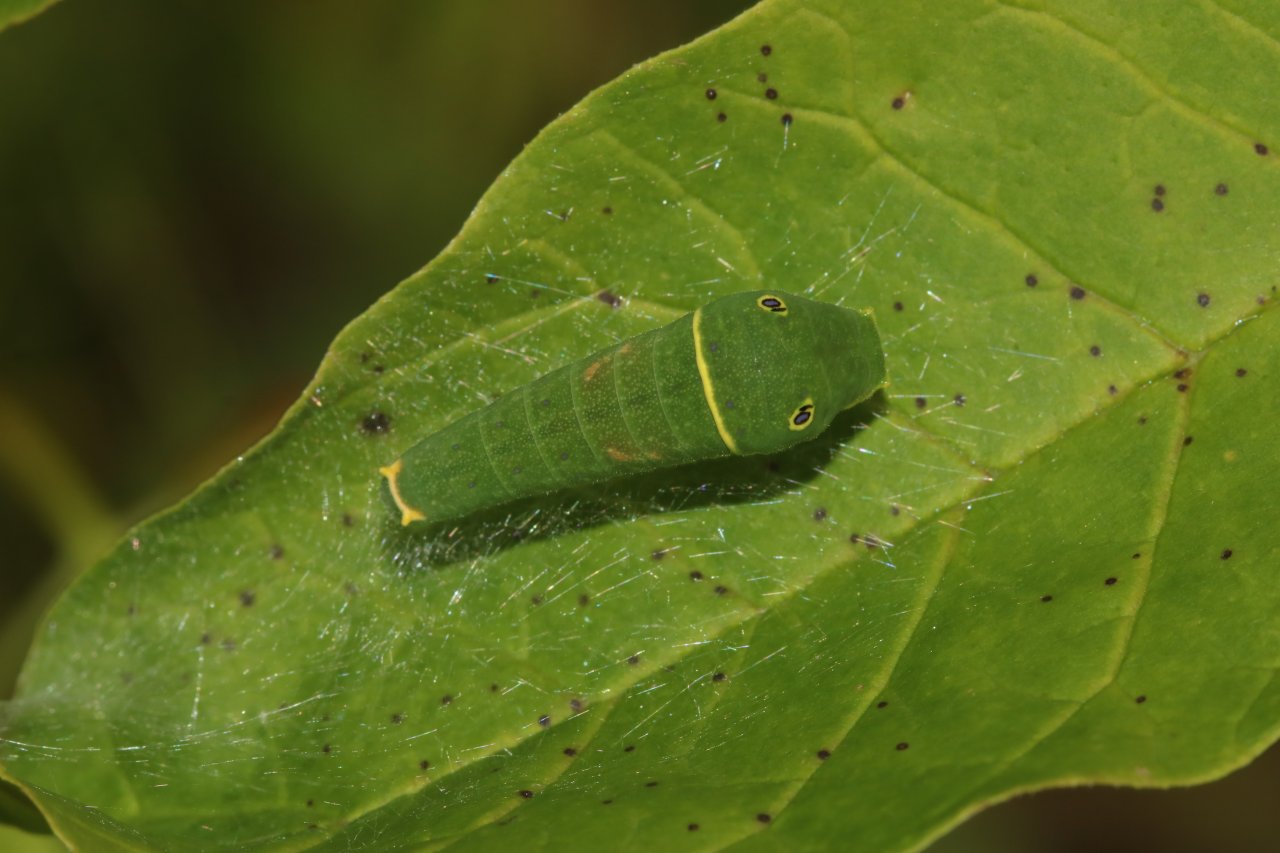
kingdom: Animalia
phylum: Arthropoda
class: Insecta
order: Lepidoptera
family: Papilionidae
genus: Pterourus
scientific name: Pterourus canadensis
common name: Canadian Tiger Swallowtail
